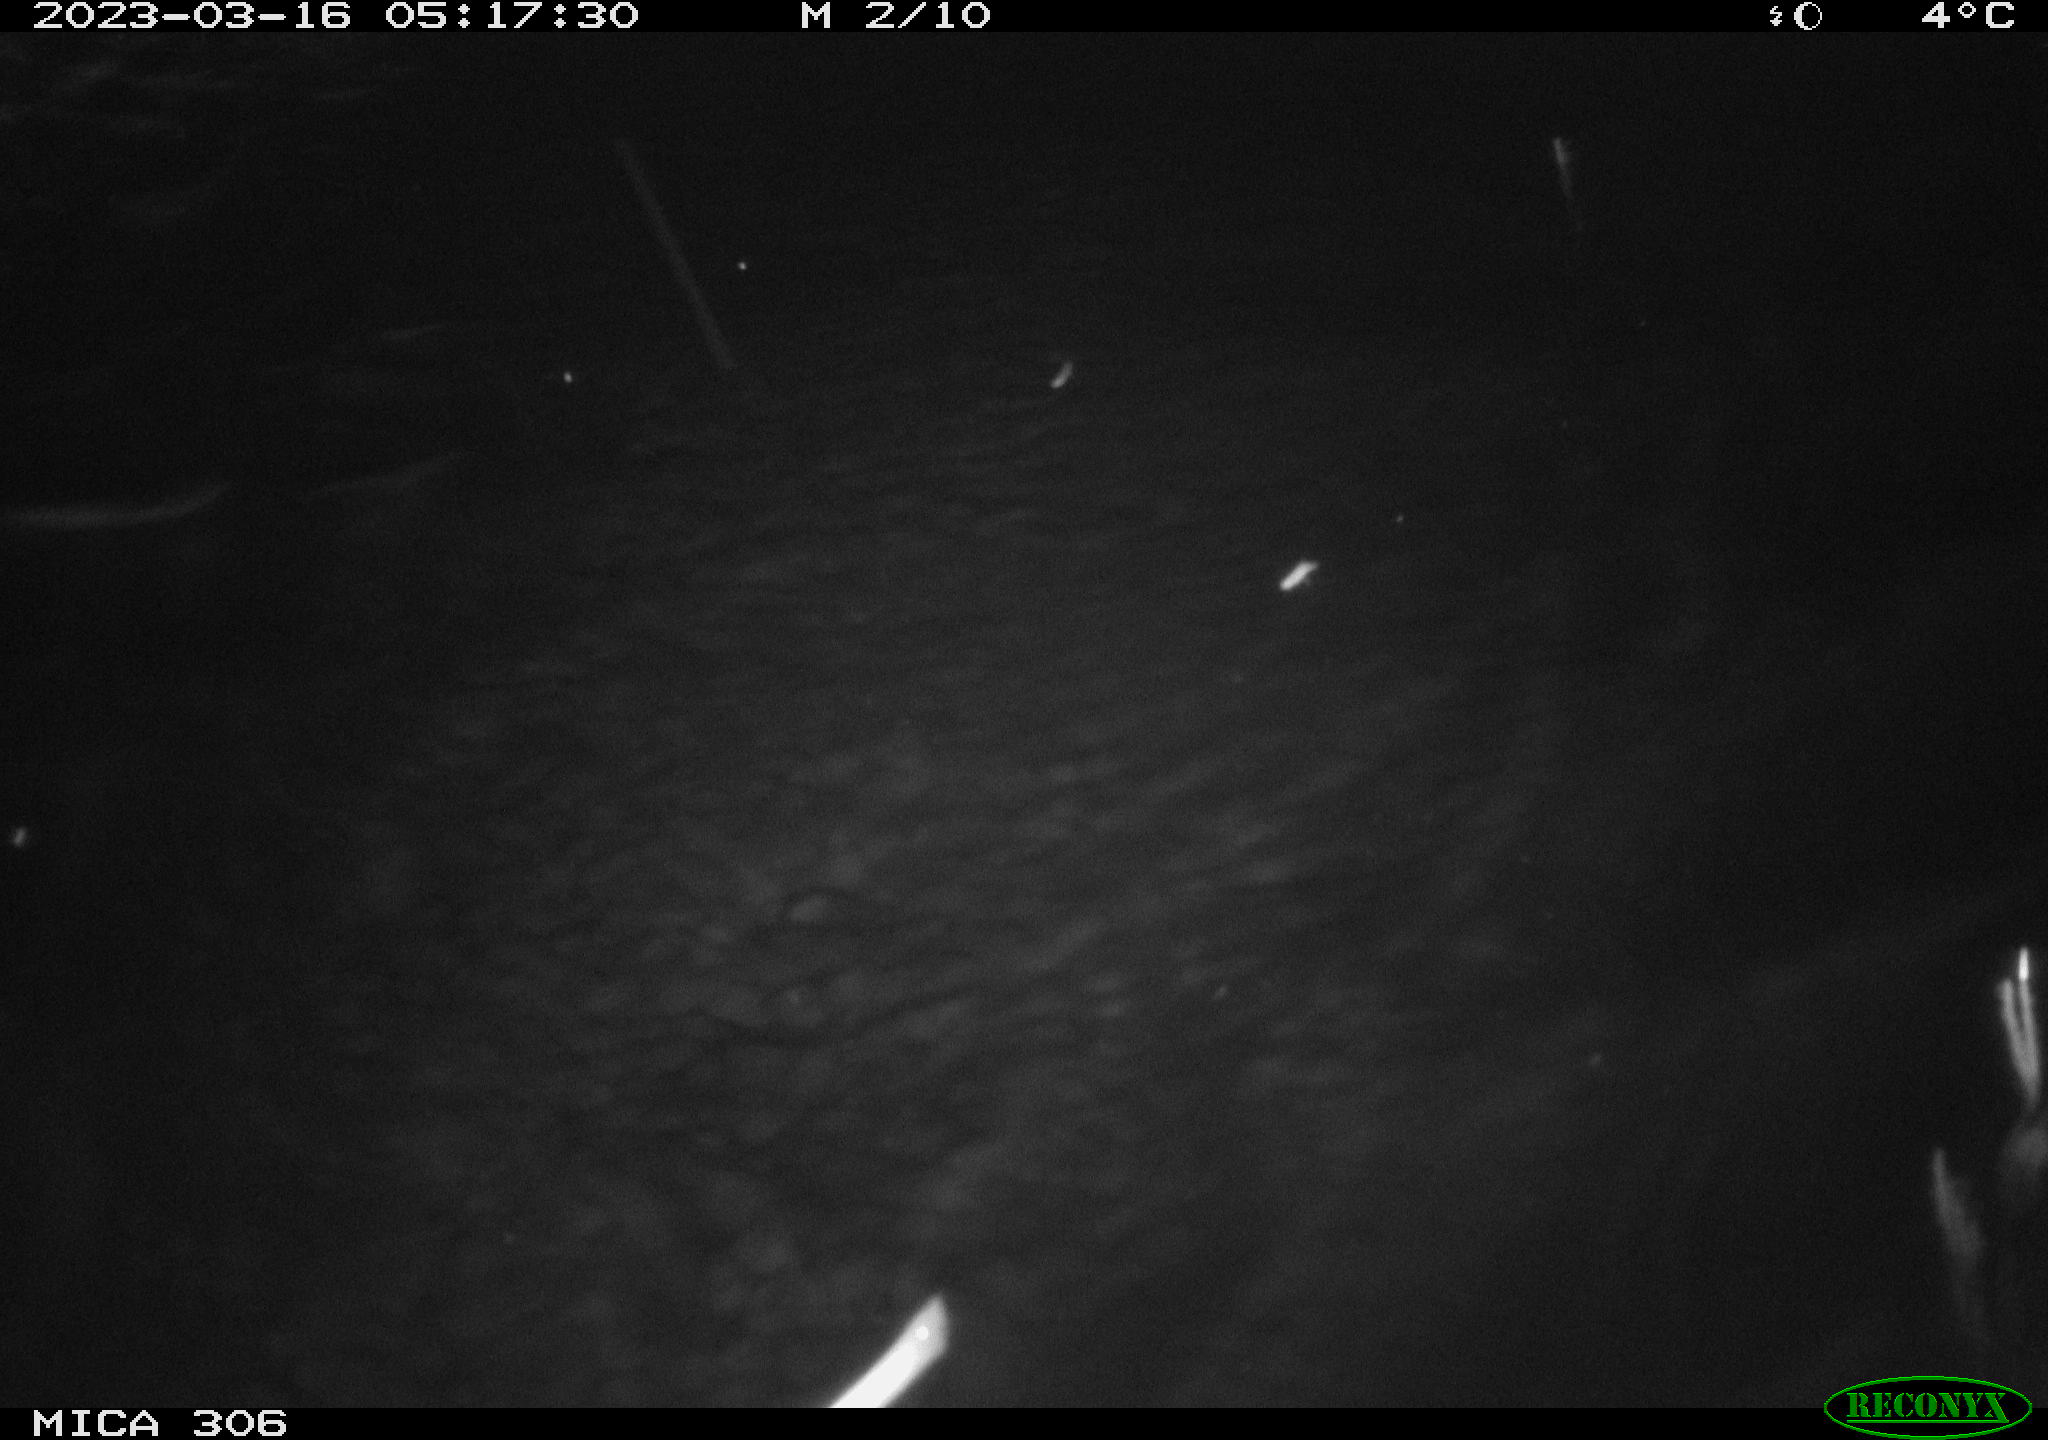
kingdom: Animalia
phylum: Chordata
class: Mammalia
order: Rodentia
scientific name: Rodentia
